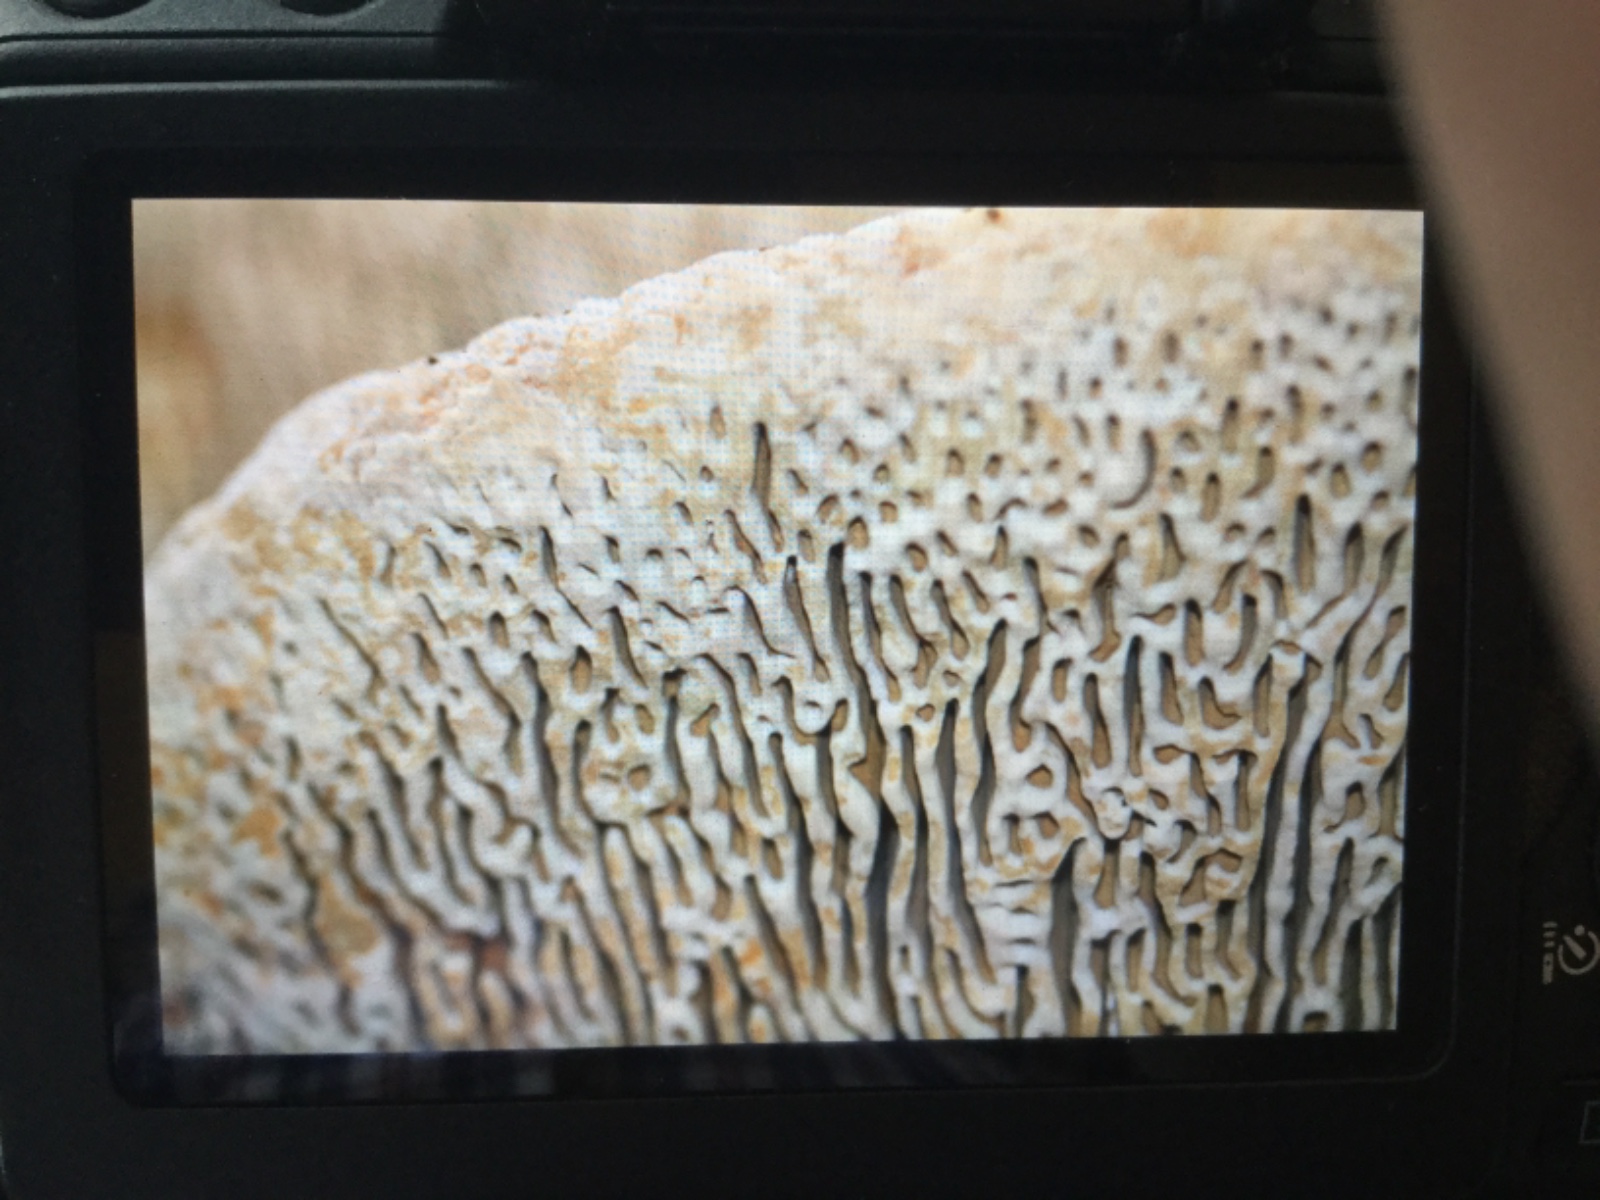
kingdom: Fungi
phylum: Basidiomycota
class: Agaricomycetes
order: Polyporales
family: Fomitopsidaceae
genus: Daedalea
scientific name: Daedalea quercina
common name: ege-labyrintsvamp
